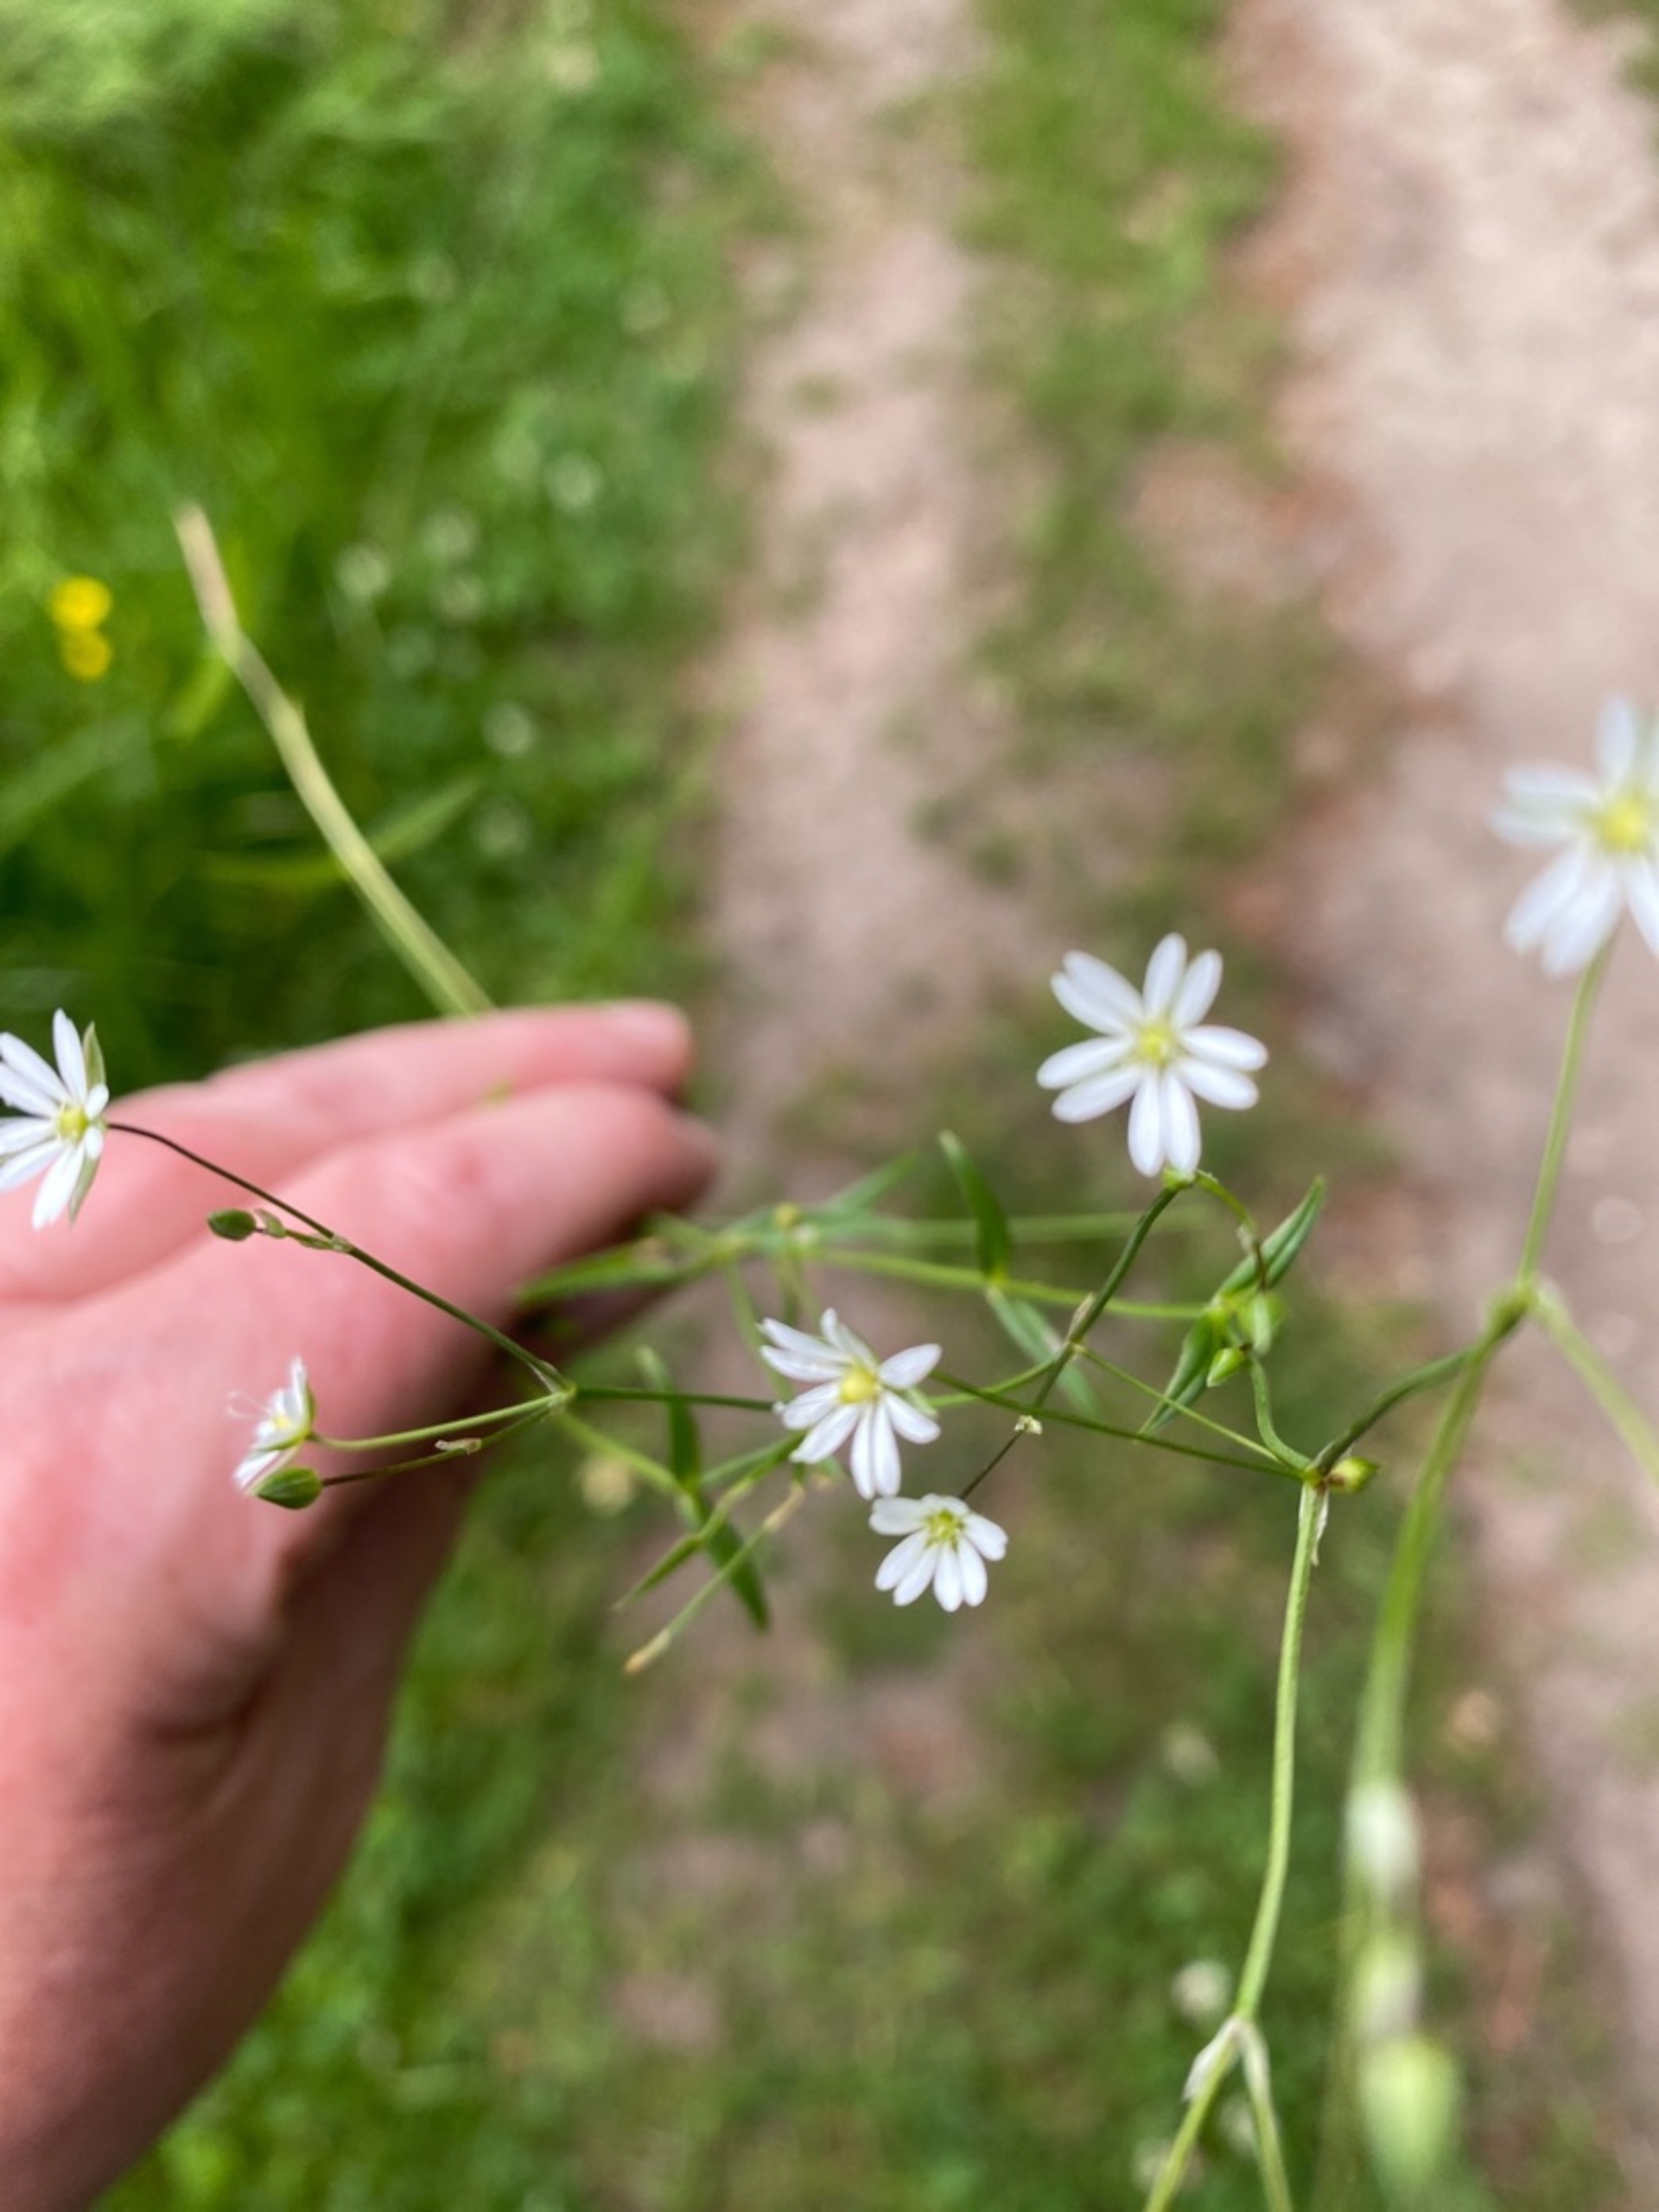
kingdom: Plantae
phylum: Tracheophyta
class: Magnoliopsida
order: Caryophyllales
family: Caryophyllaceae
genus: Stellaria
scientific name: Stellaria graminea
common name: Græsbladet fladstjerne
